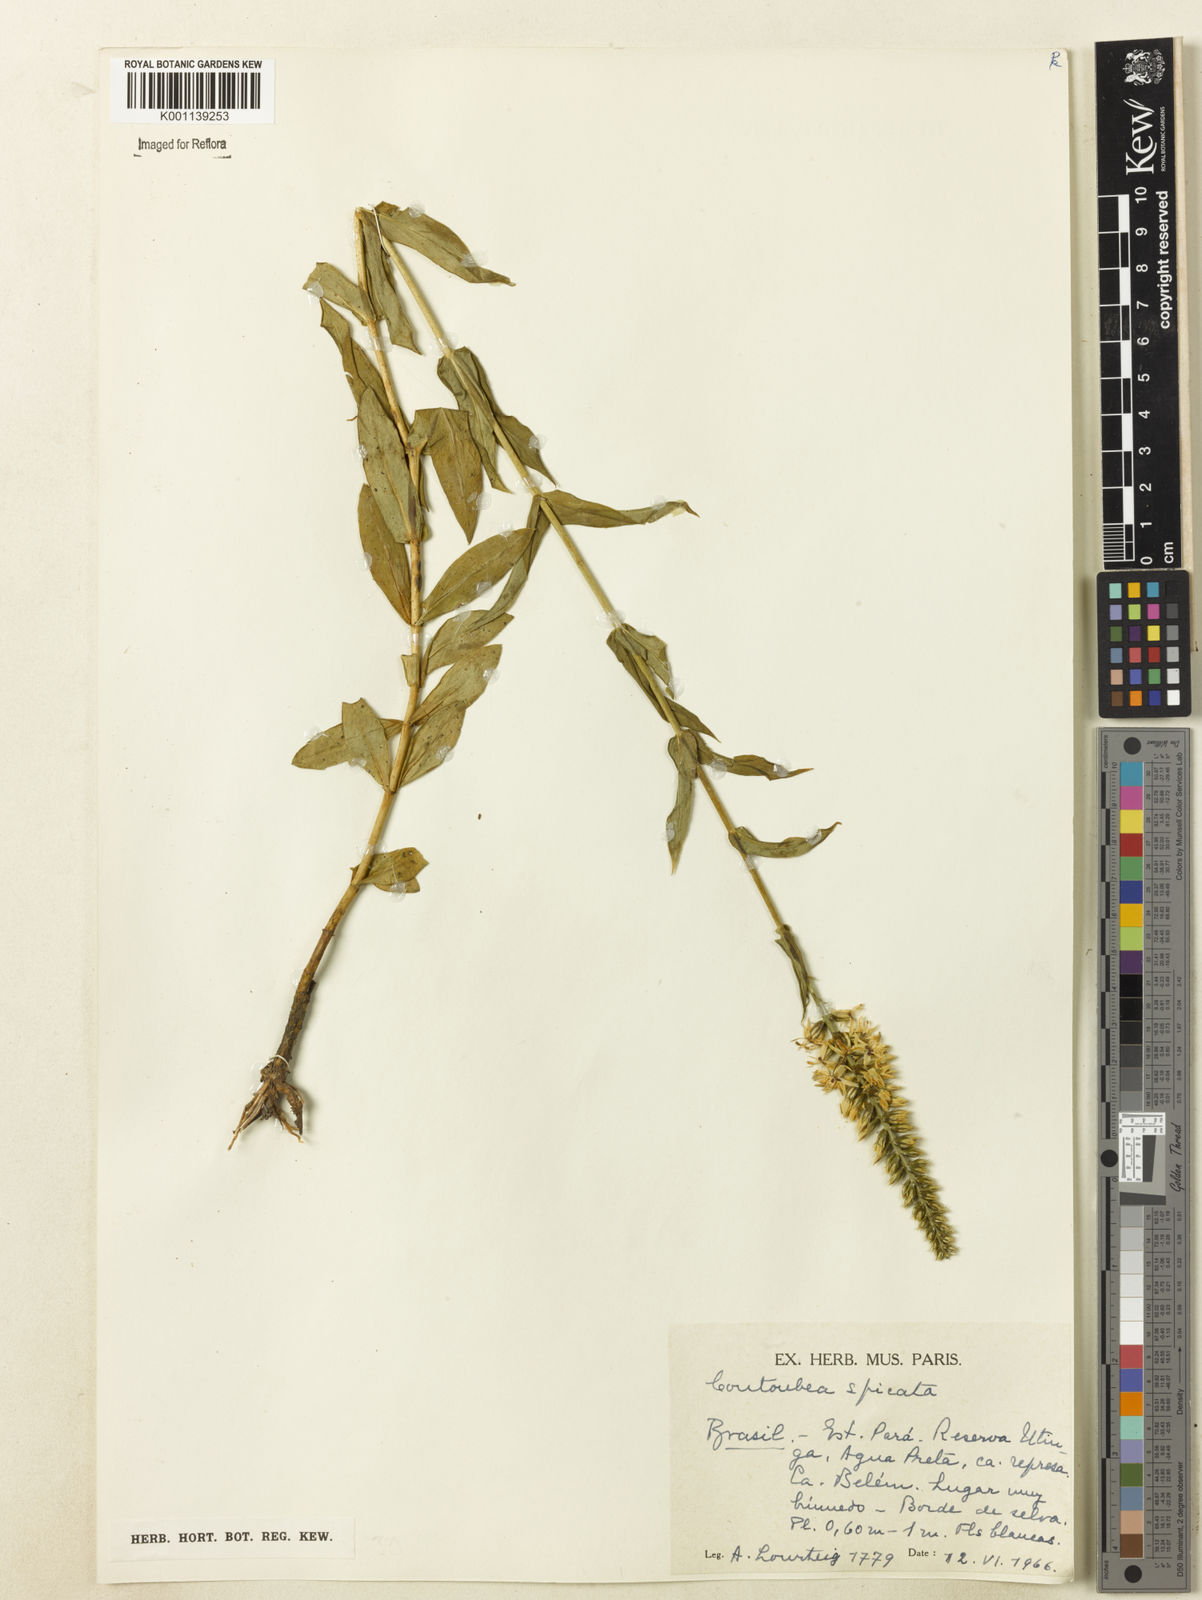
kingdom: Plantae
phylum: Tracheophyta
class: Magnoliopsida
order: Gentianales
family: Gentianaceae
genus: Coutoubea
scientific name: Coutoubea spicata
